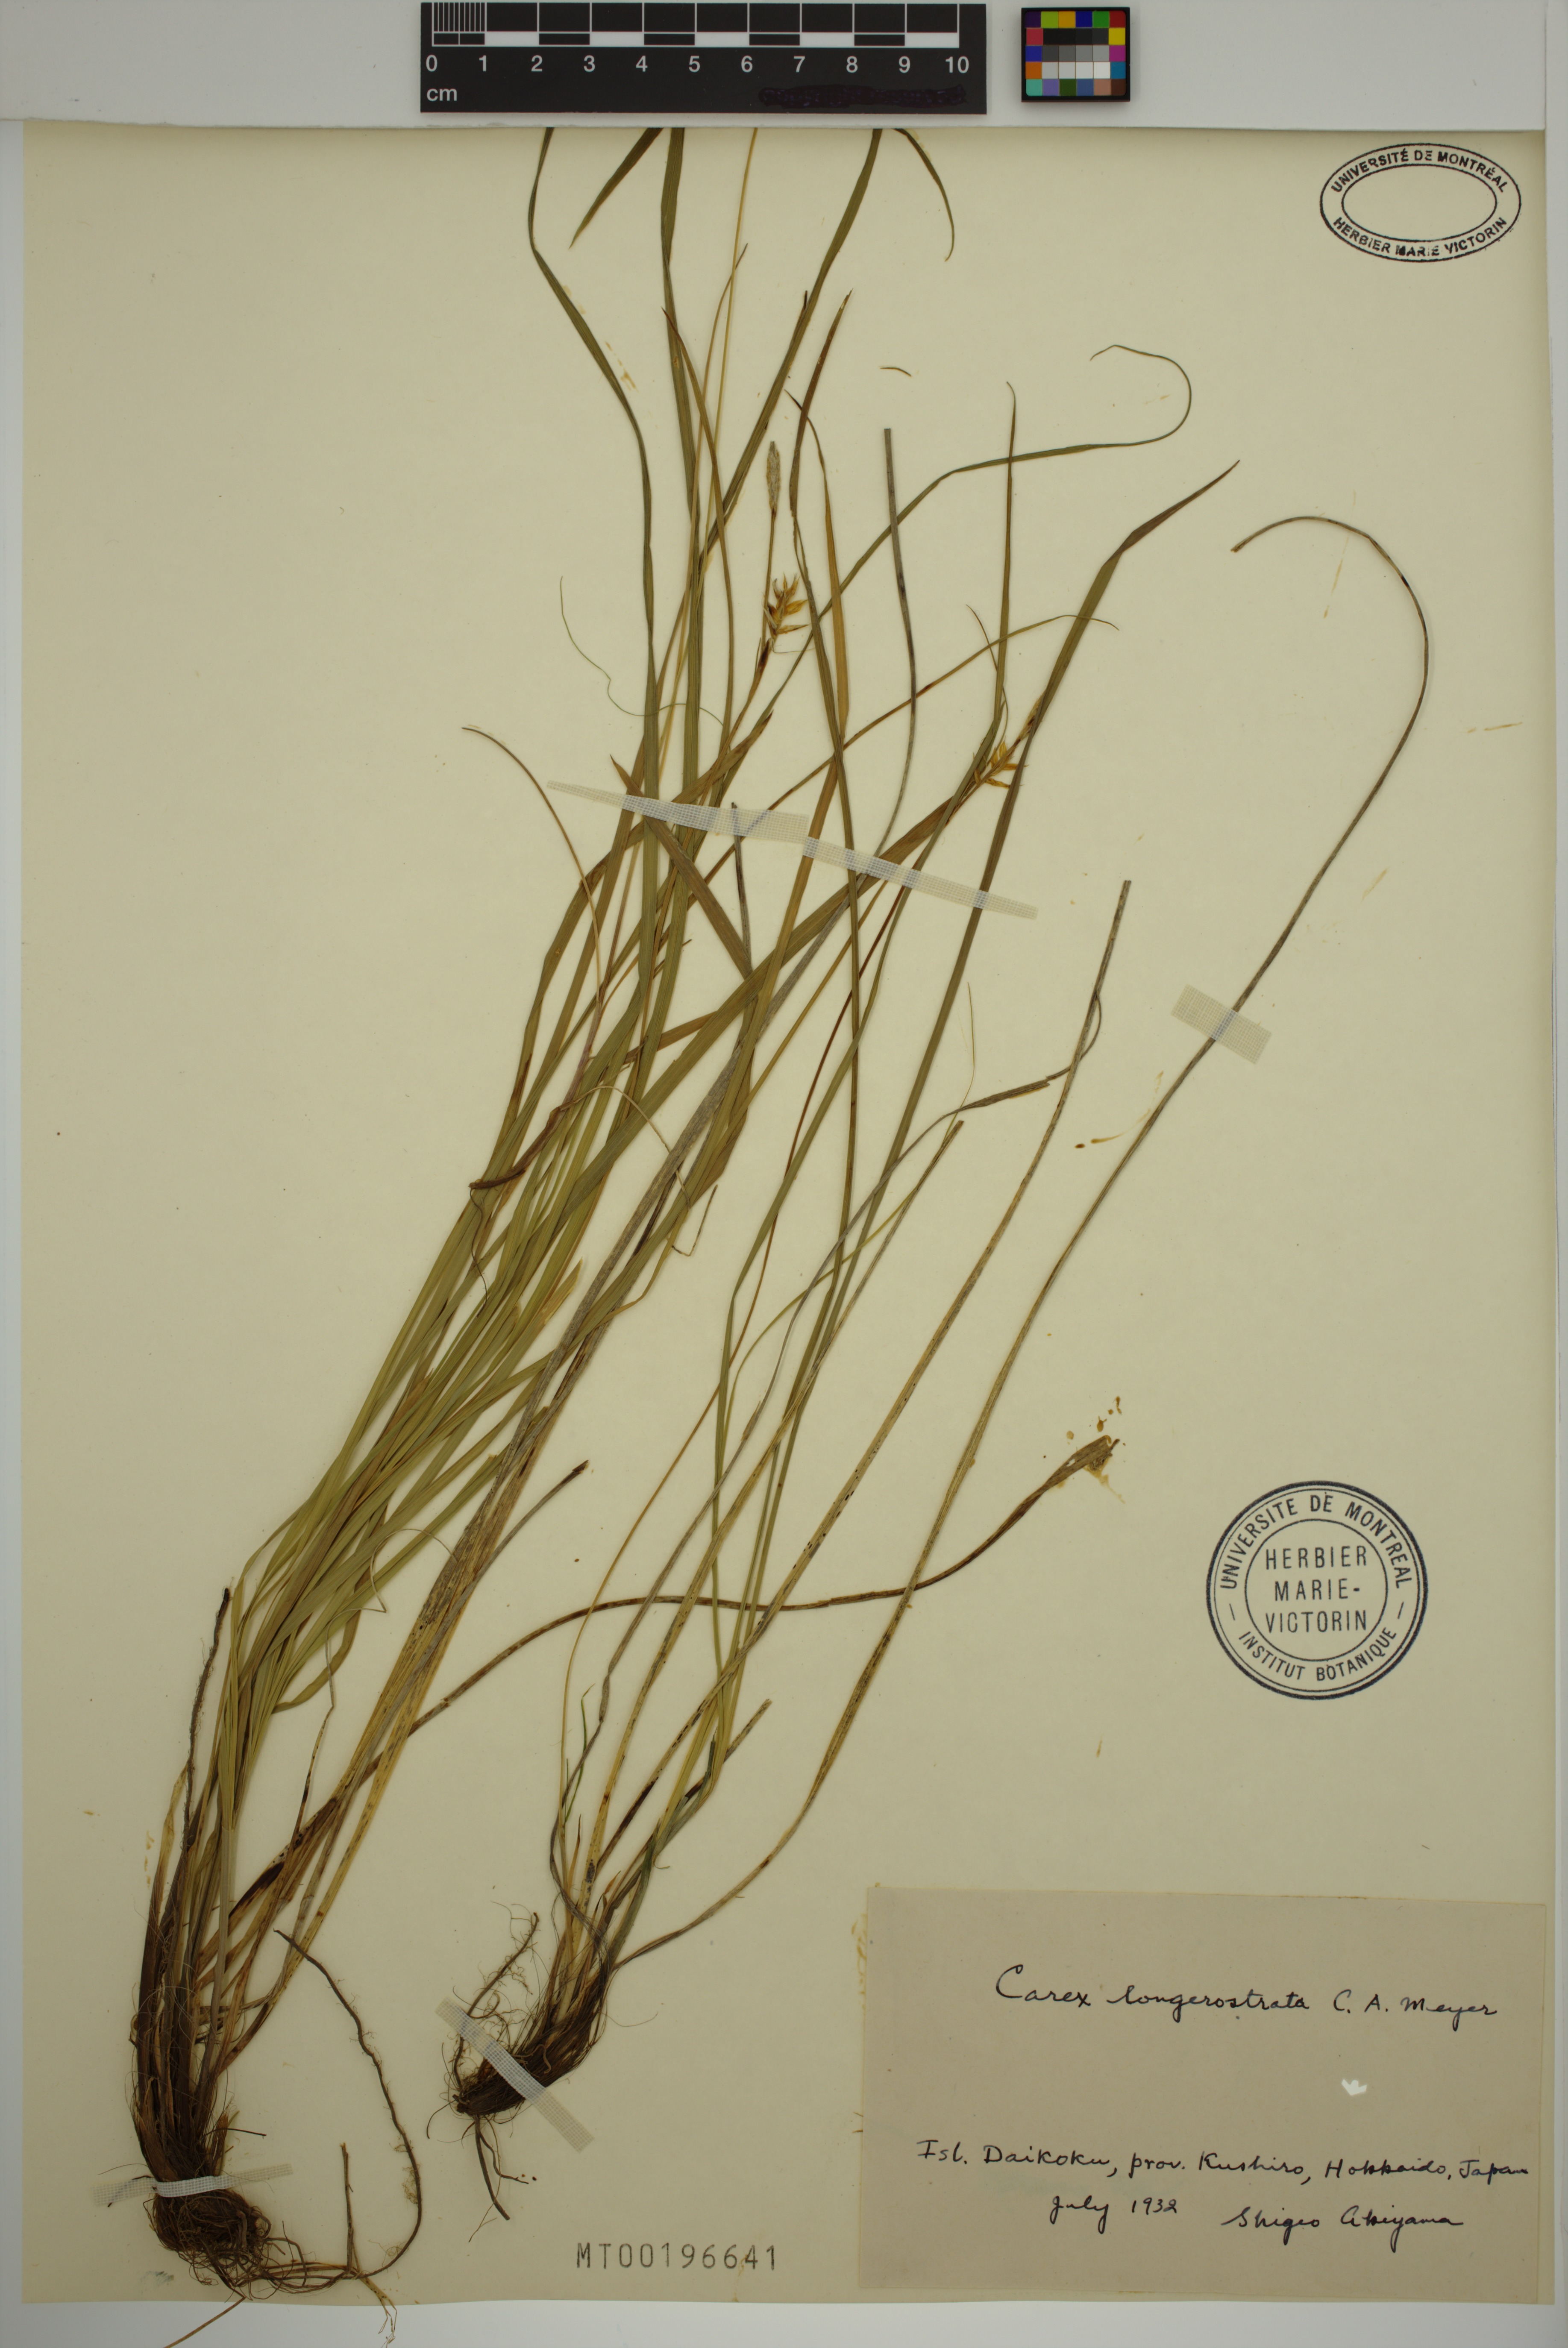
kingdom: Plantae
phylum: Tracheophyta
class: Liliopsida
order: Poales
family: Cyperaceae
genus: Carex
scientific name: Carex longerostrata
